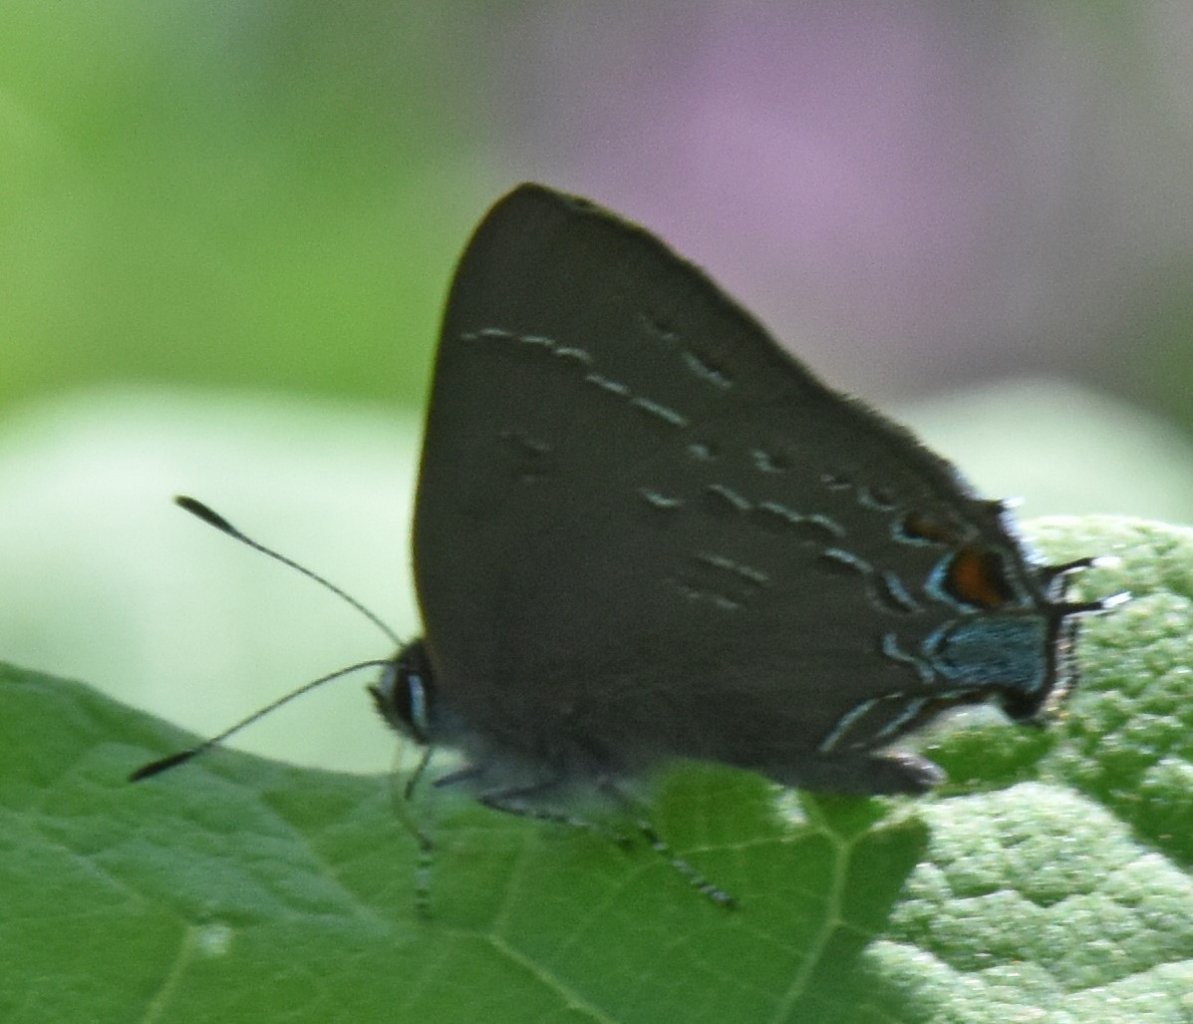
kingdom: Animalia
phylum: Arthropoda
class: Insecta
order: Lepidoptera
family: Lycaenidae
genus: Satyrium
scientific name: Satyrium calanus
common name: Banded Hairstreak
